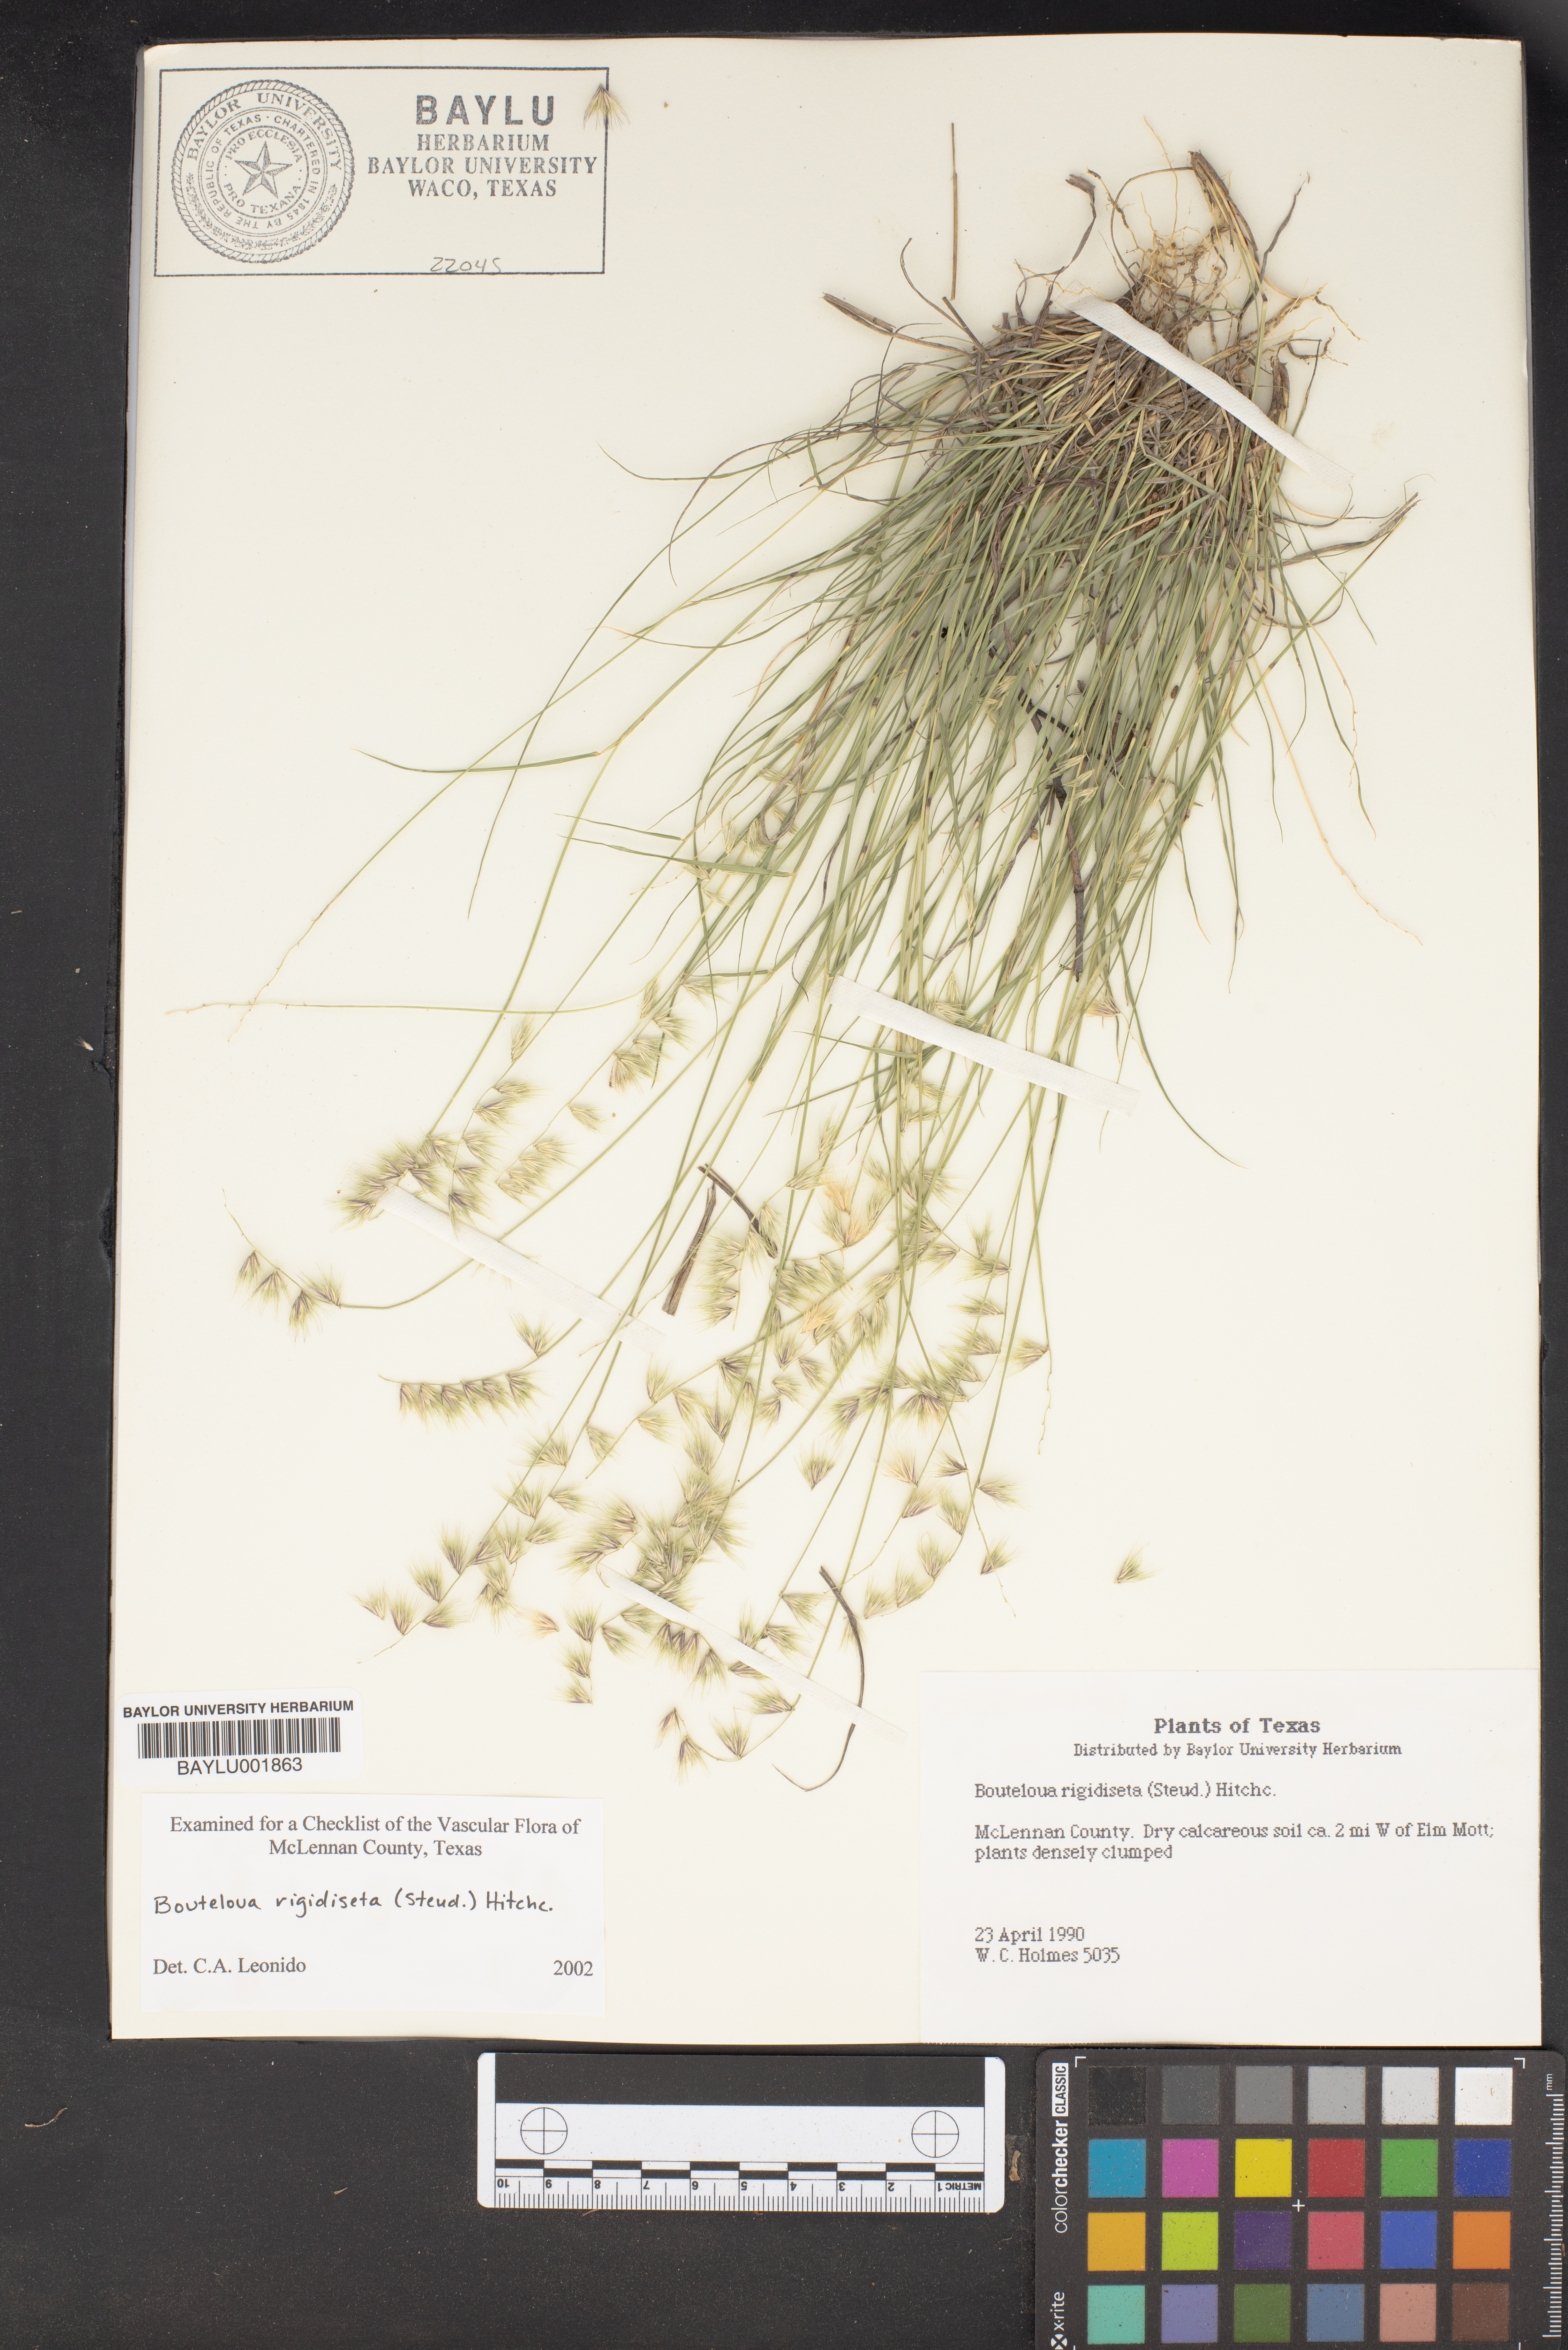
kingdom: Plantae
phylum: Tracheophyta
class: Liliopsida
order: Poales
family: Poaceae
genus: Bouteloua
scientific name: Bouteloua rigidiseta
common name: Texas grama
